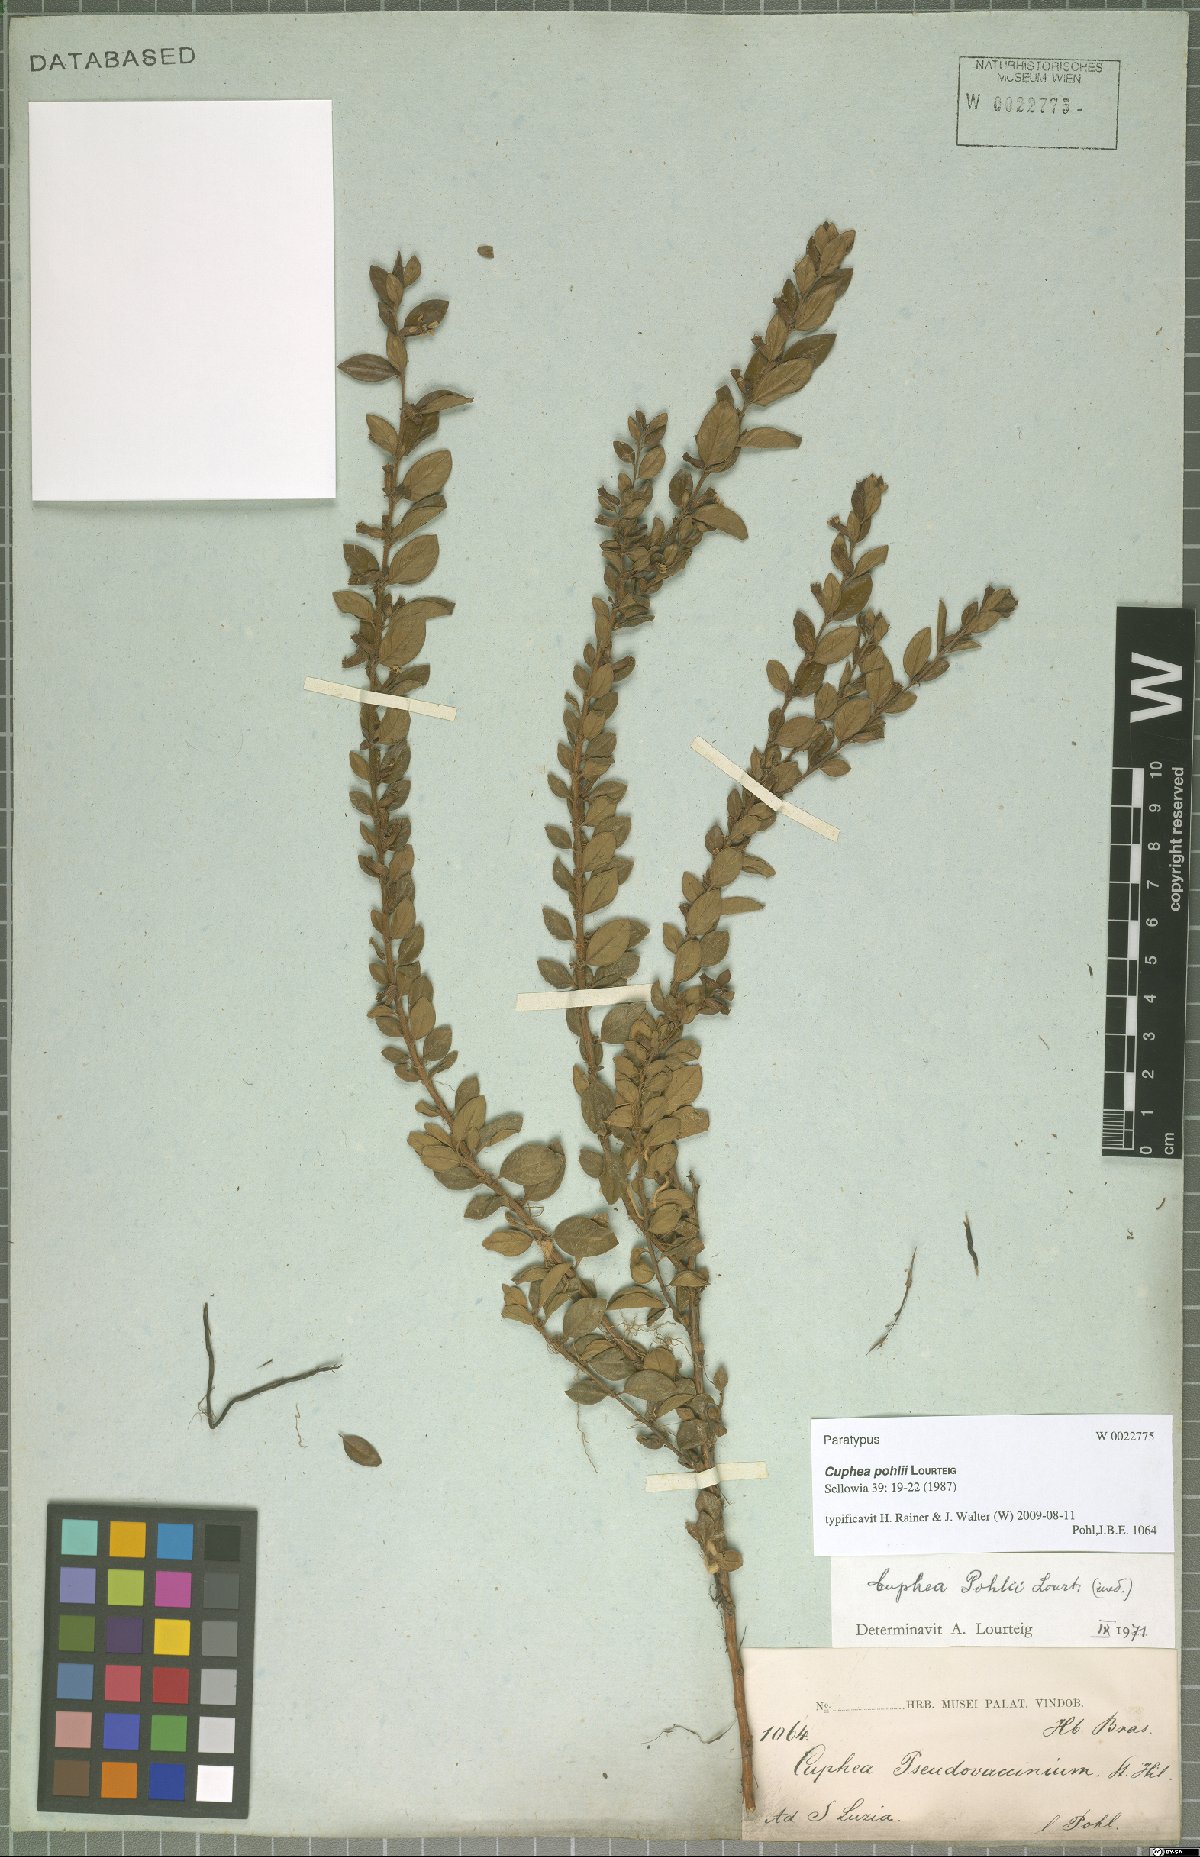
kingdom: Plantae
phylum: Tracheophyta
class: Magnoliopsida
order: Myrtales
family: Lythraceae
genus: Cuphea
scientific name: Cuphea pohlii
